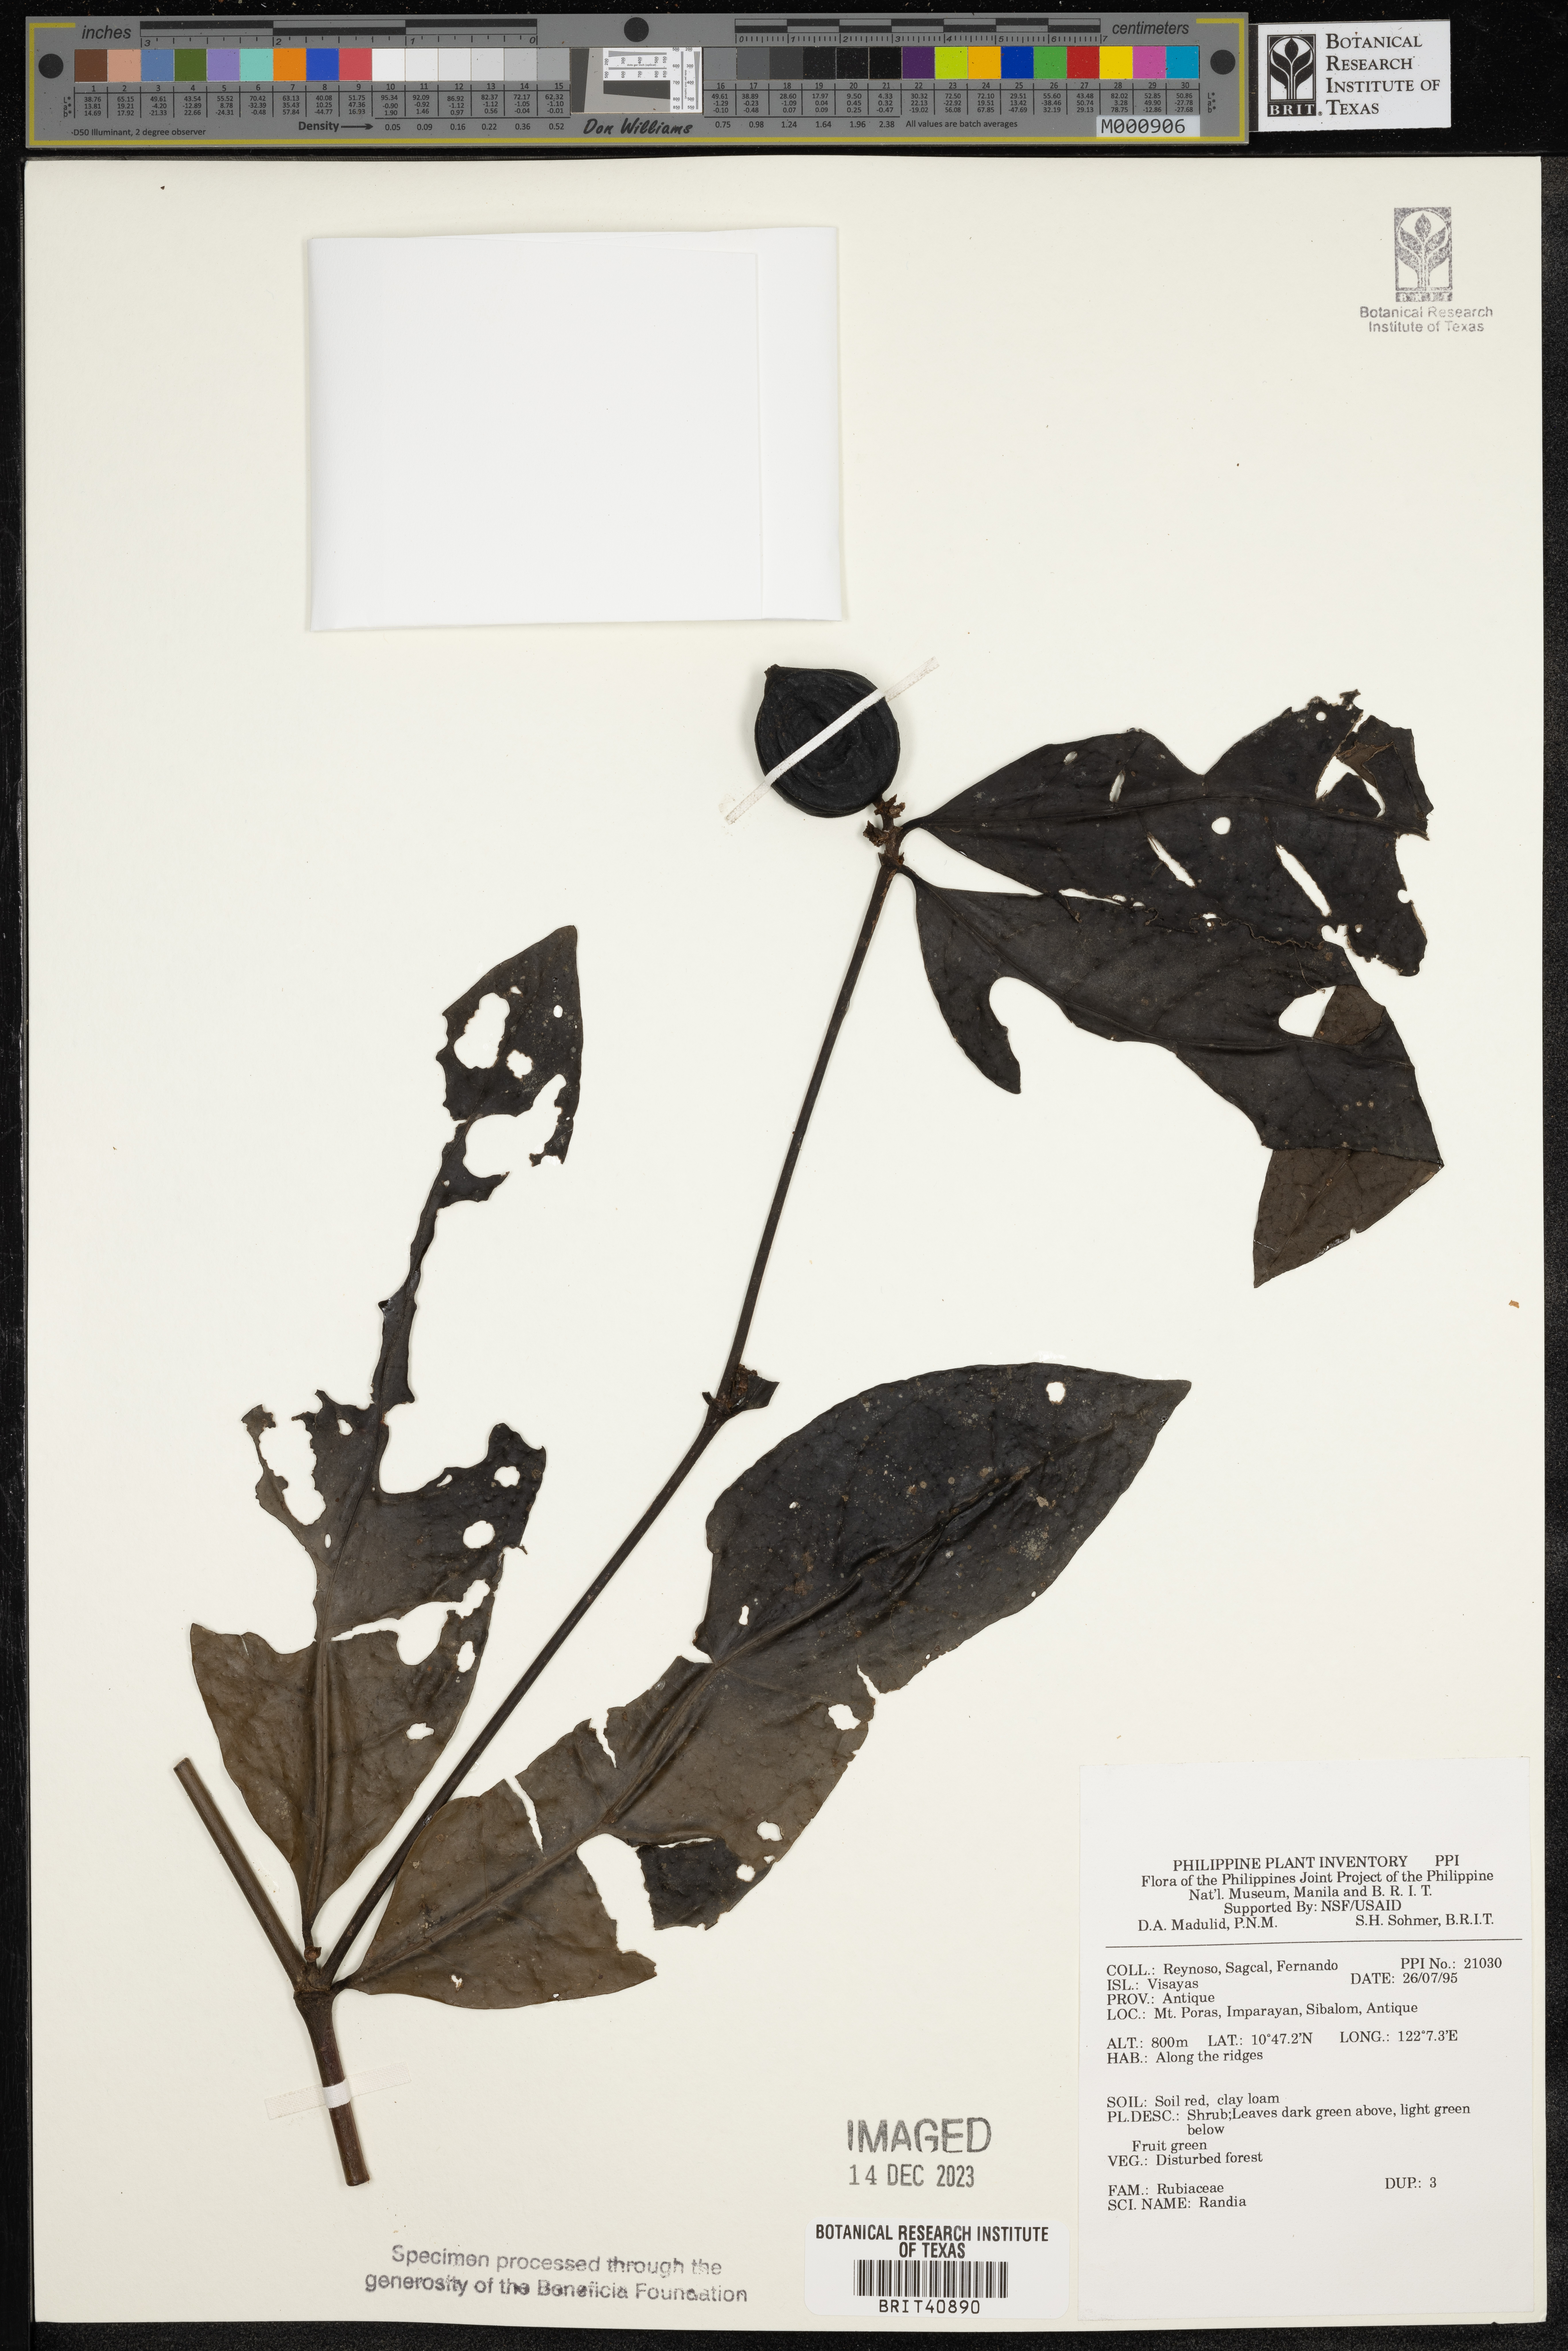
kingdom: Plantae
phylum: Tracheophyta
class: Magnoliopsida
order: Gentianales
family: Rubiaceae
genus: Randia
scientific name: Randia
